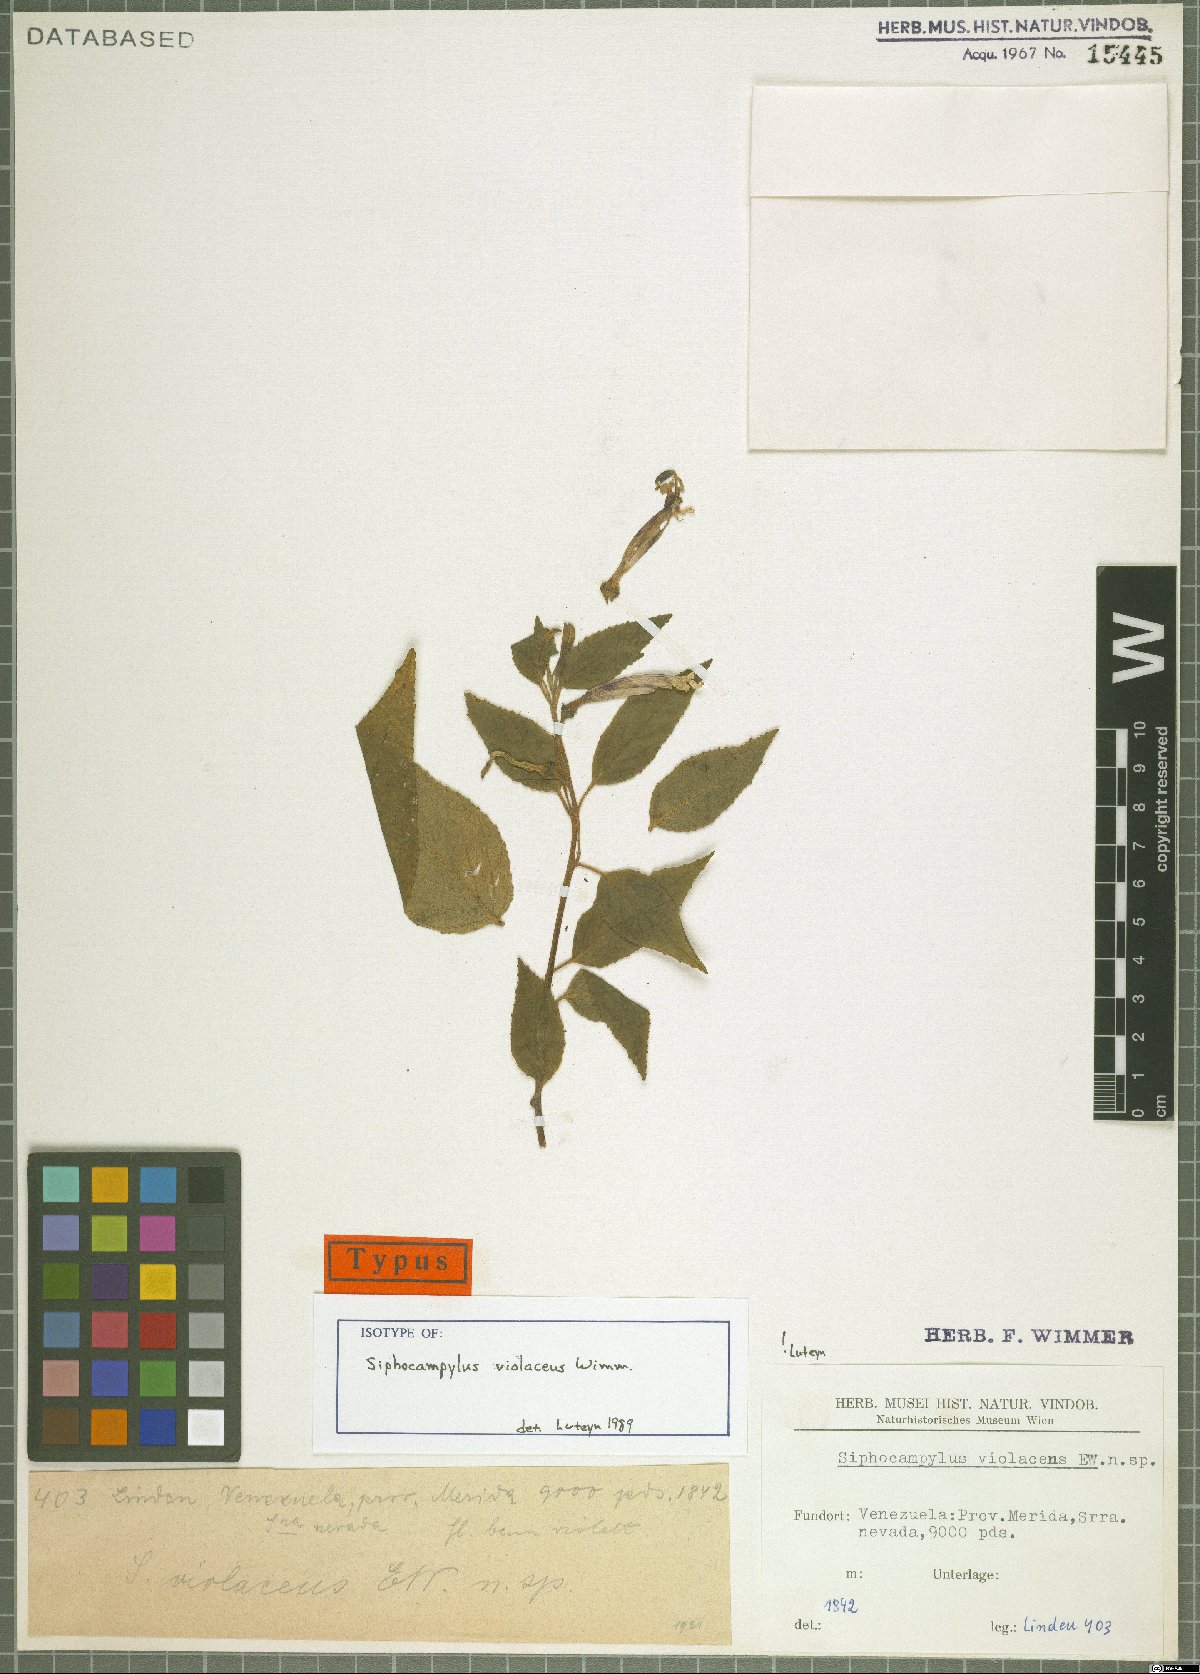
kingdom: Plantae
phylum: Tracheophyta
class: Magnoliopsida
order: Asterales
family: Campanulaceae
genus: Siphocampylus
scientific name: Siphocampylus violaceus
